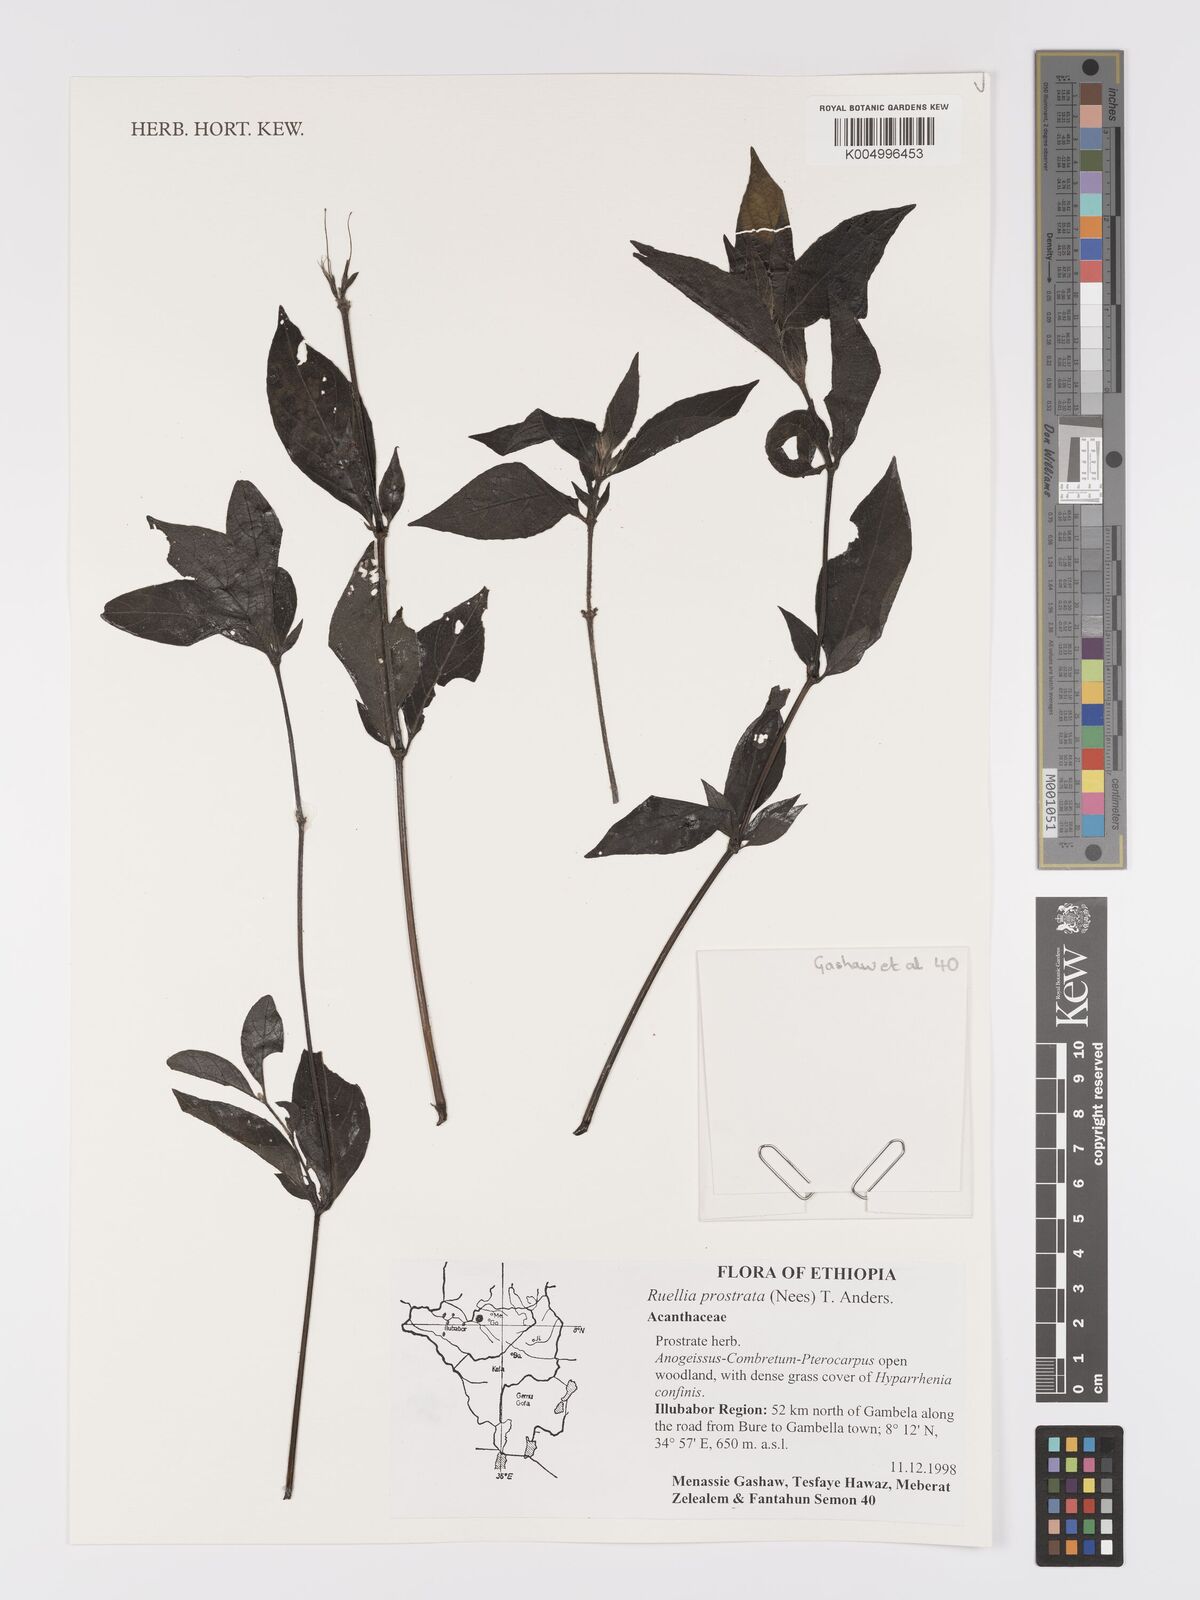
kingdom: Plantae
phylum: Tracheophyta
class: Magnoliopsida
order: Lamiales
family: Acanthaceae
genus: Ruellia
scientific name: Ruellia
